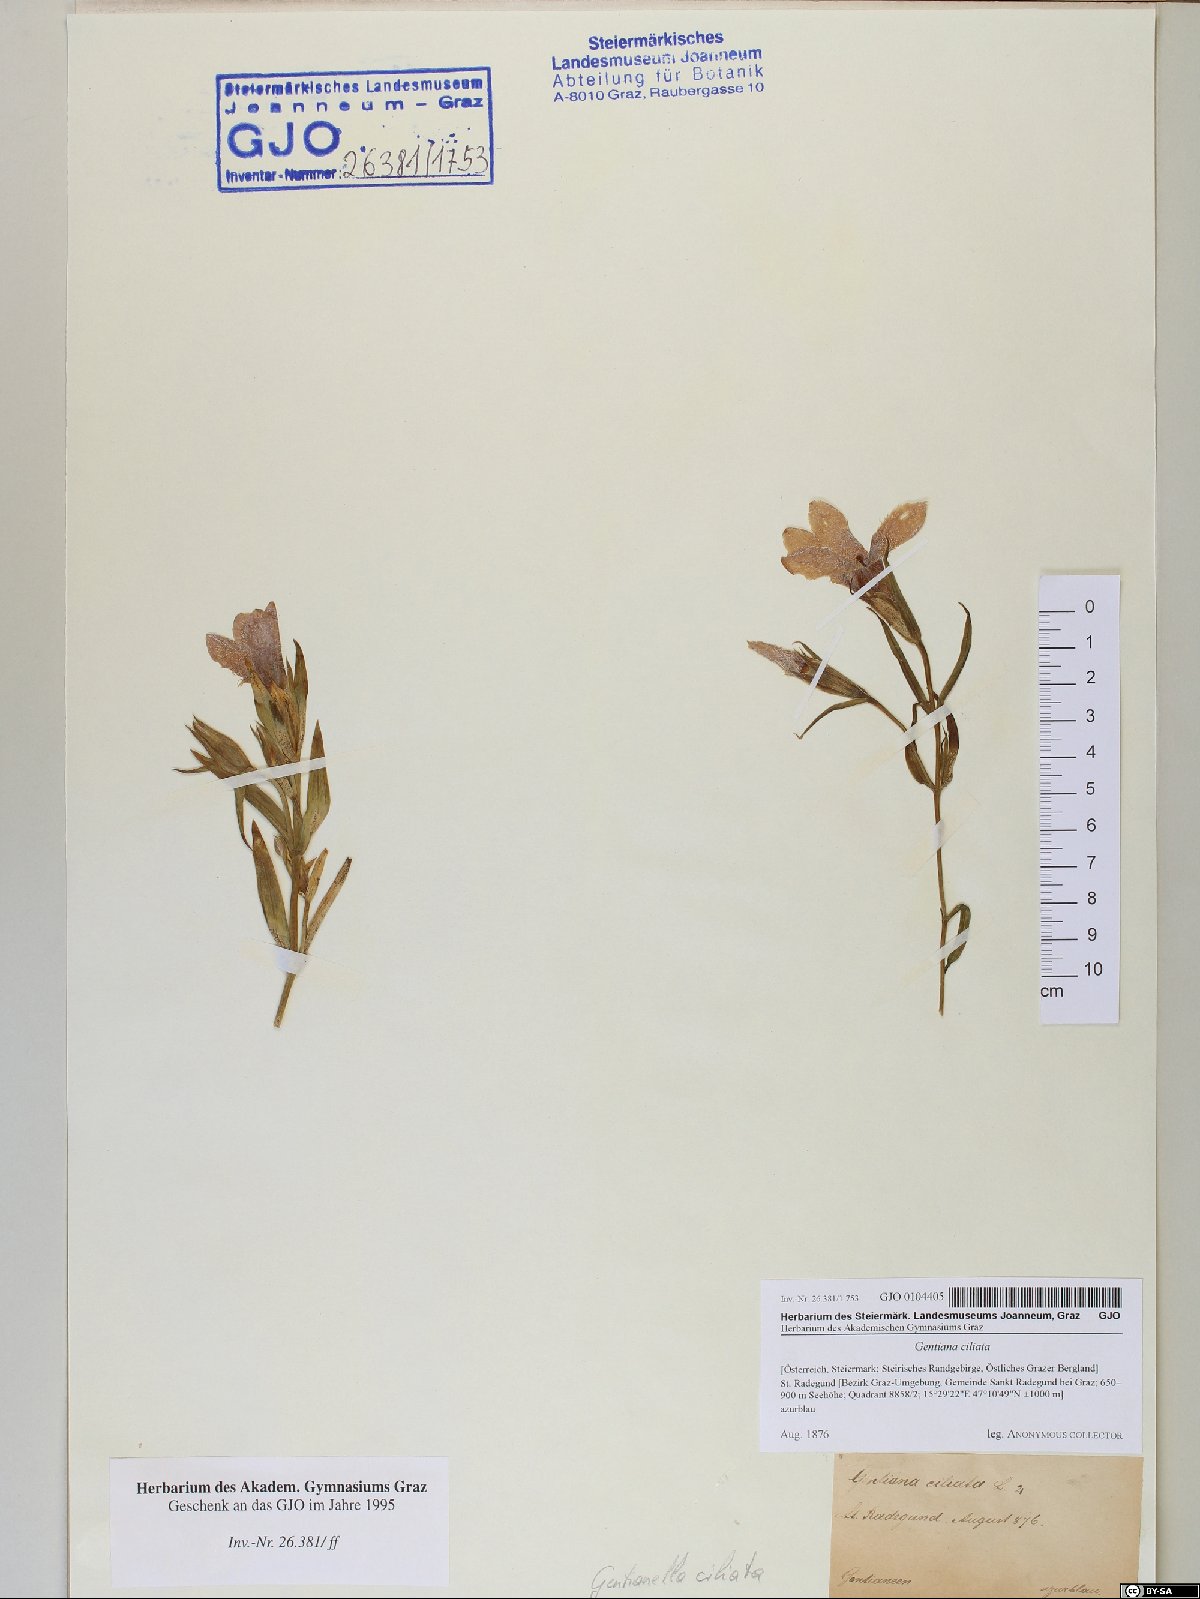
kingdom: Plantae
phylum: Tracheophyta
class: Magnoliopsida
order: Gentianales
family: Gentianaceae
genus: Gentianopsis
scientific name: Gentianopsis ciliata
